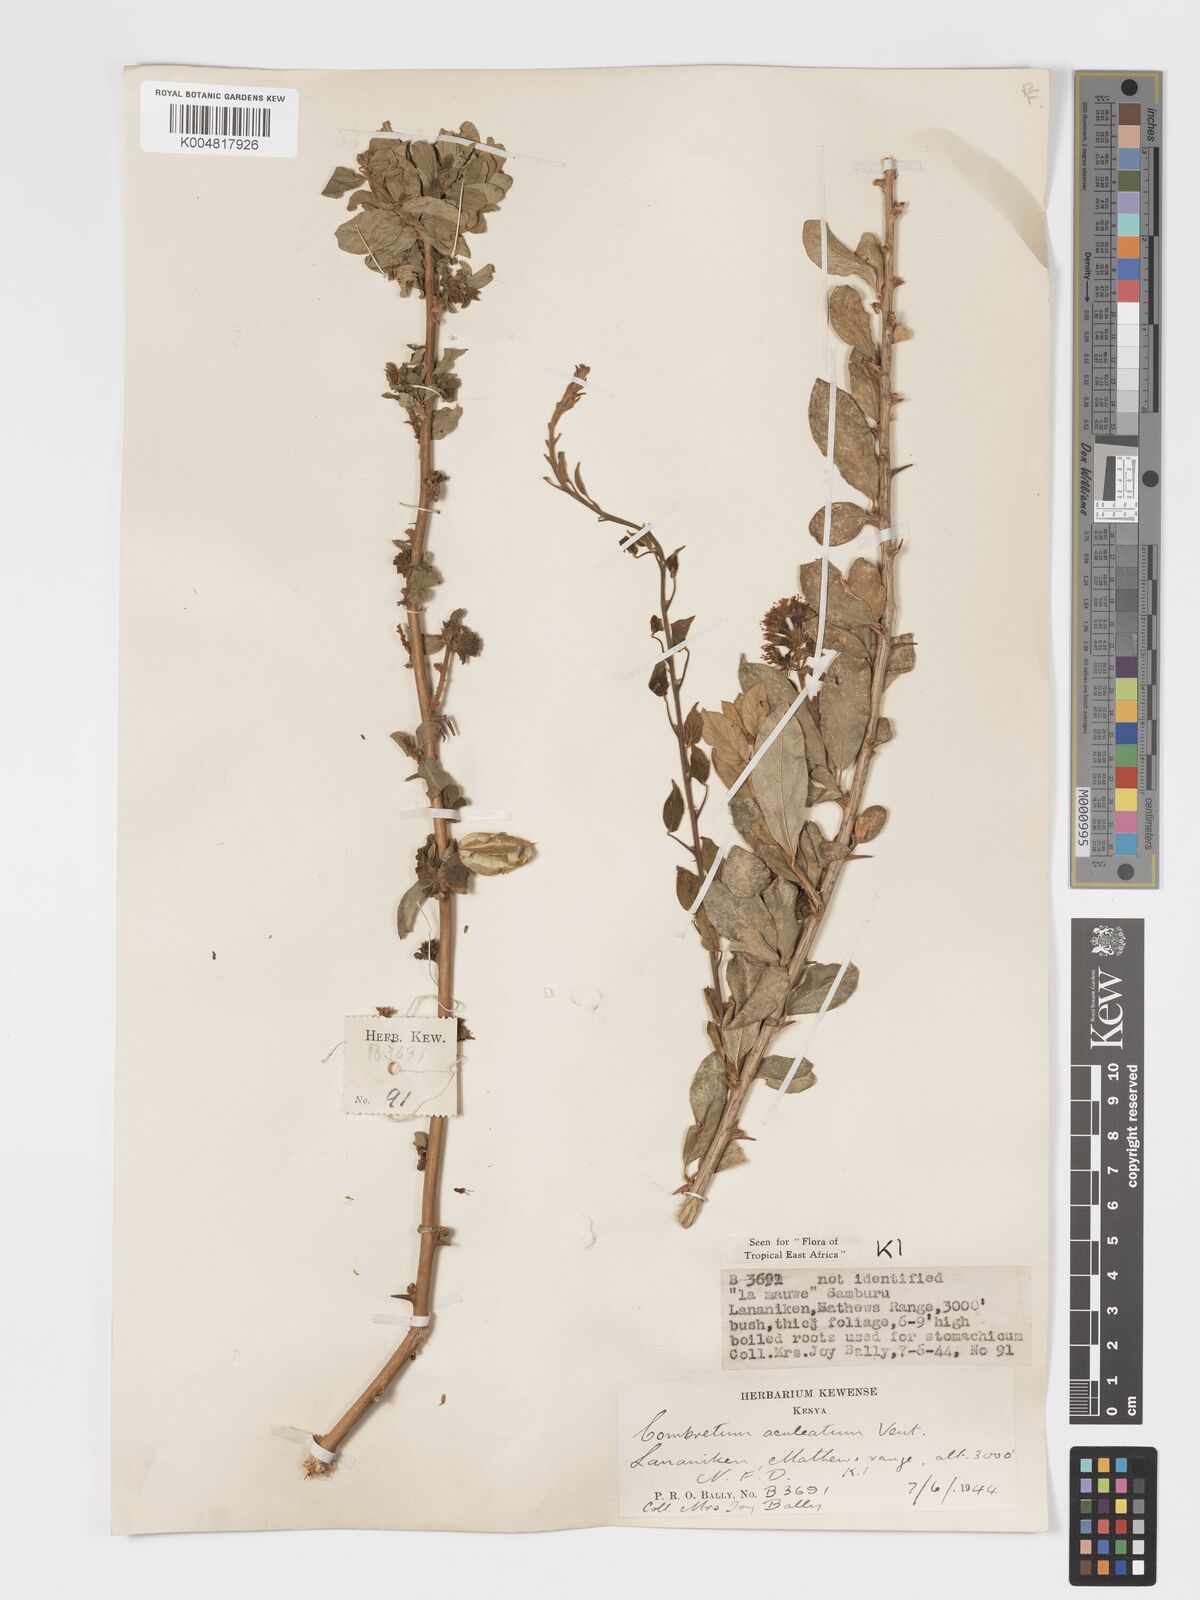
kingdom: Plantae
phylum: Tracheophyta
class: Magnoliopsida
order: Myrtales
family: Combretaceae
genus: Combretum
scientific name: Combretum aculeatum
